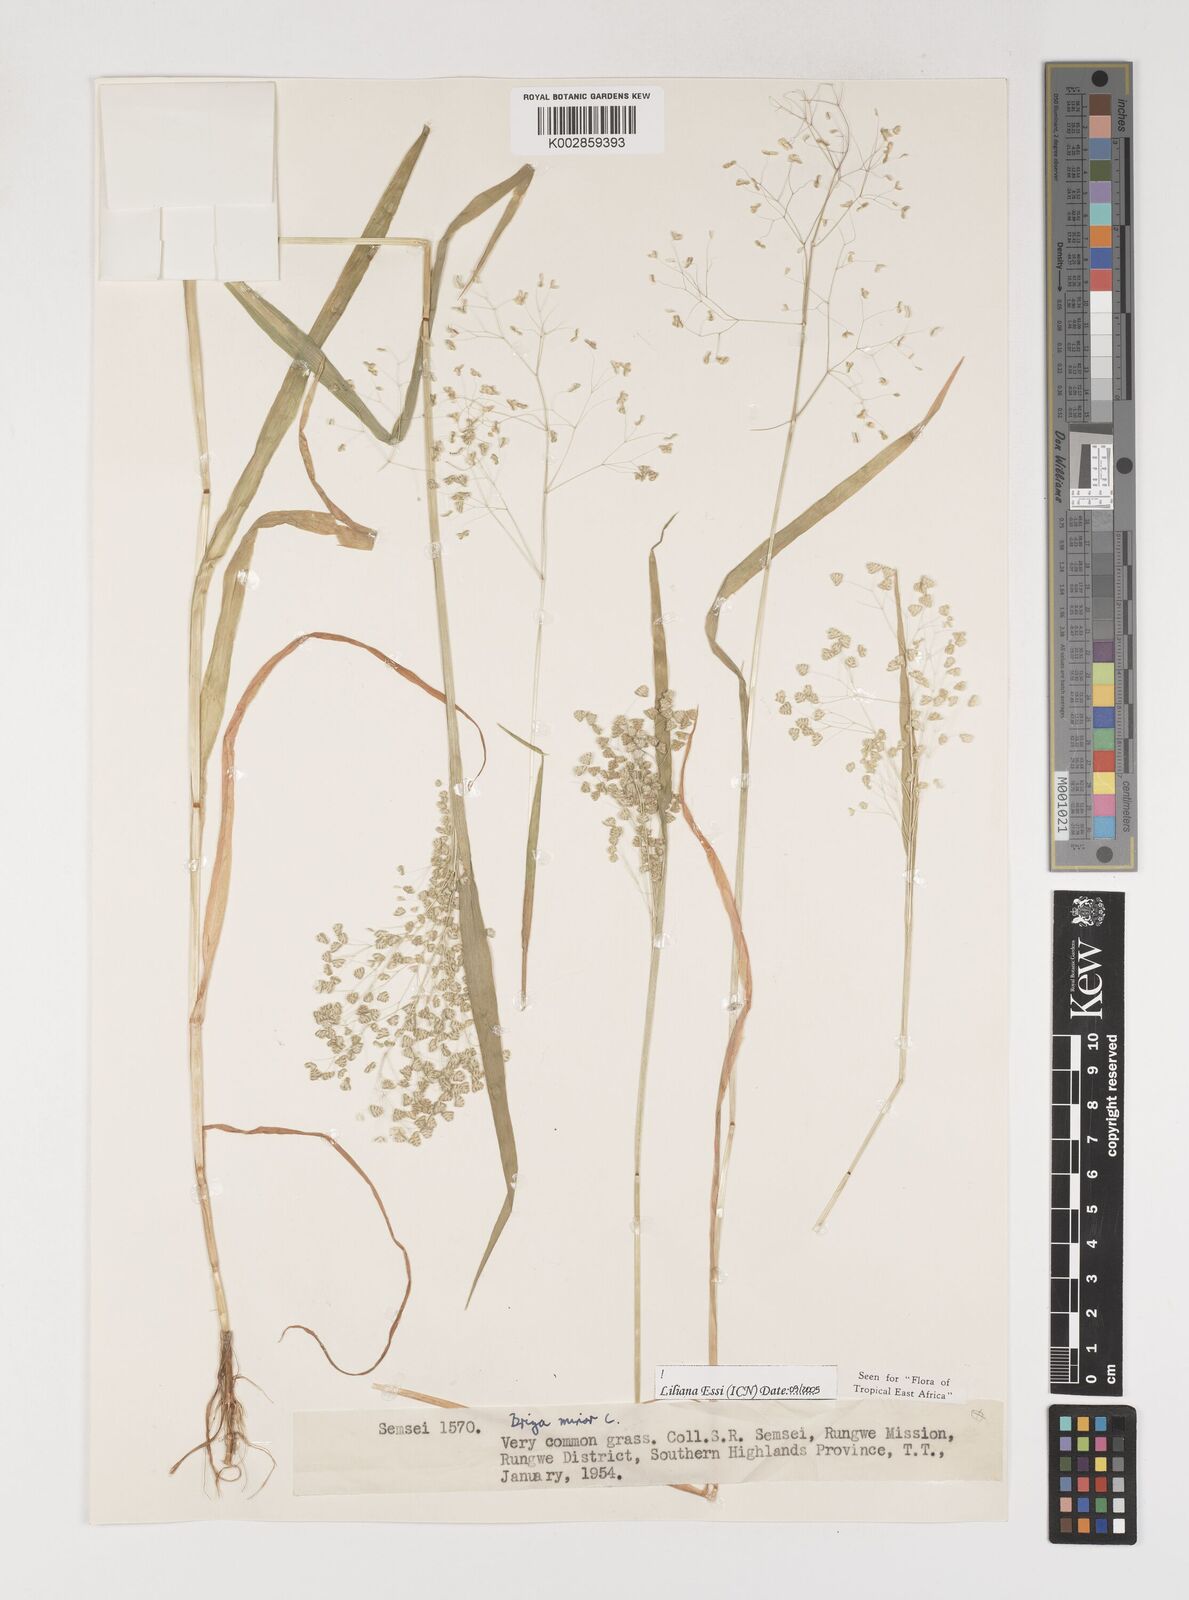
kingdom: Plantae
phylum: Tracheophyta
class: Liliopsida
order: Poales
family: Poaceae
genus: Briza
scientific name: Briza minor
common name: Lesser quaking-grass
